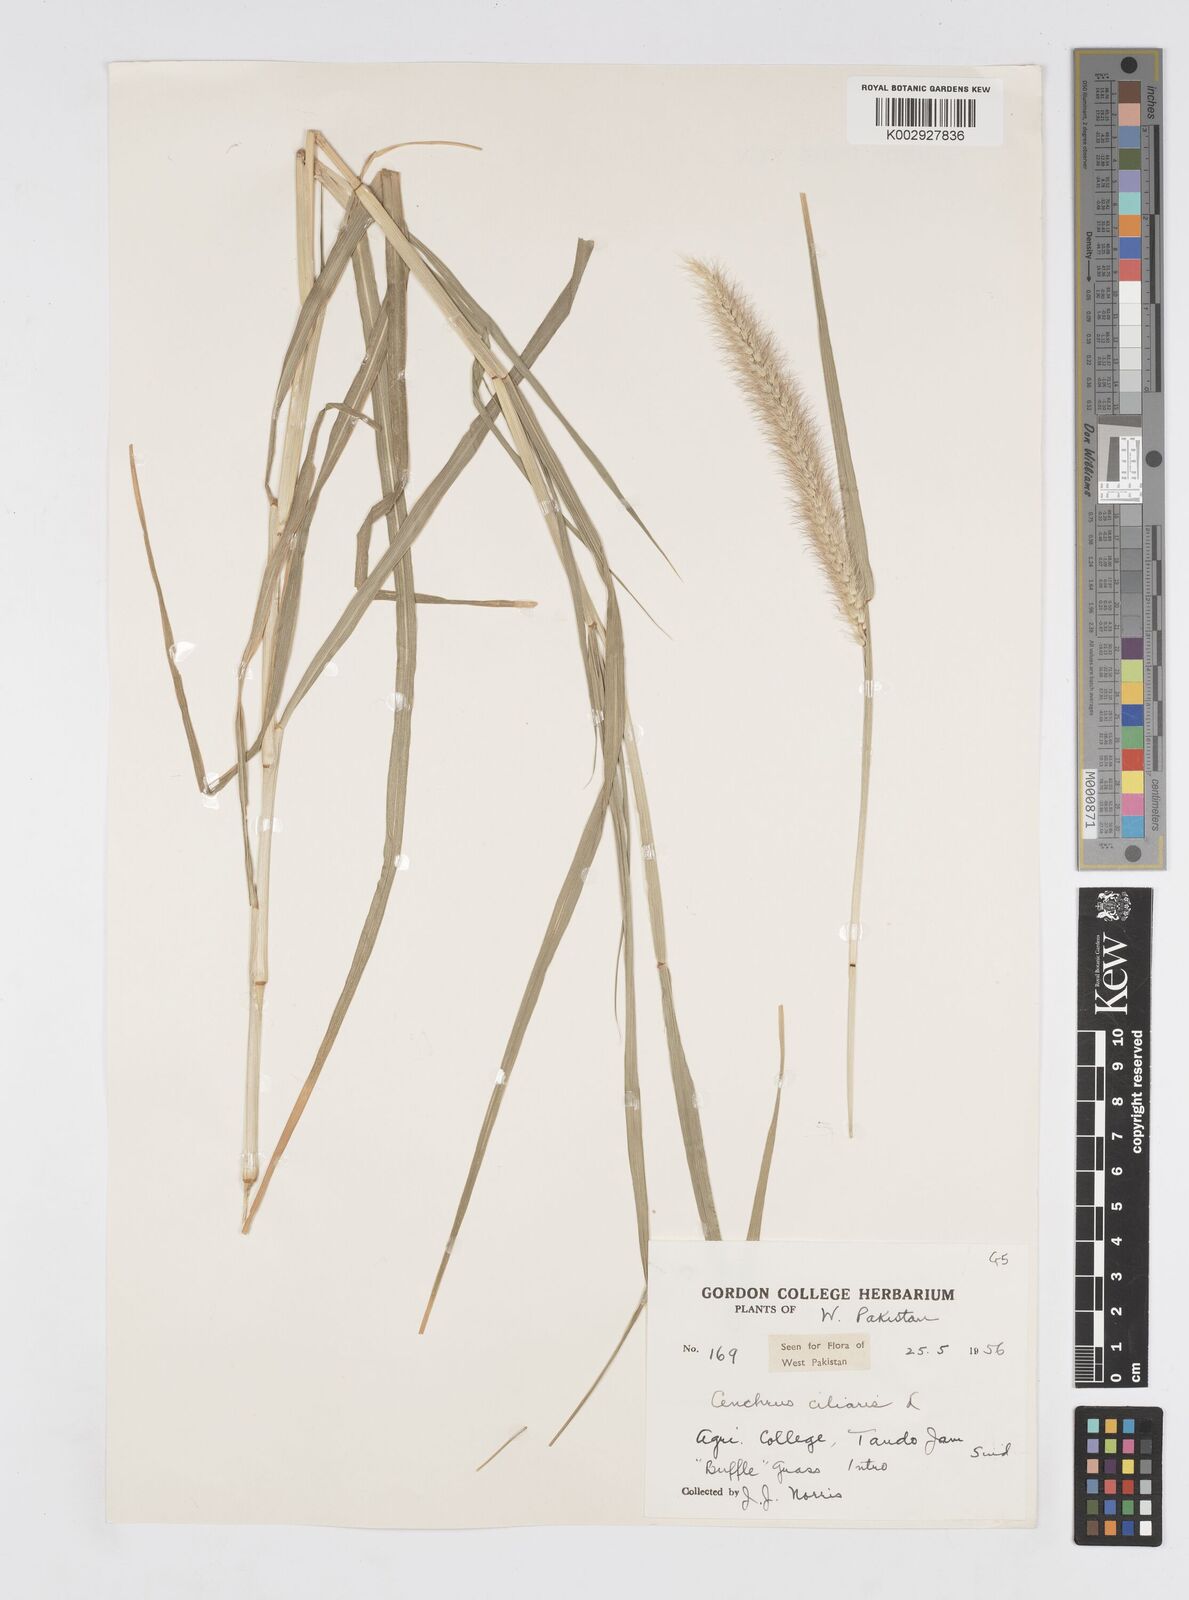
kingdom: Plantae
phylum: Tracheophyta
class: Liliopsida
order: Poales
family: Poaceae
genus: Cenchrus
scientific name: Cenchrus ciliaris
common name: Buffelgrass
